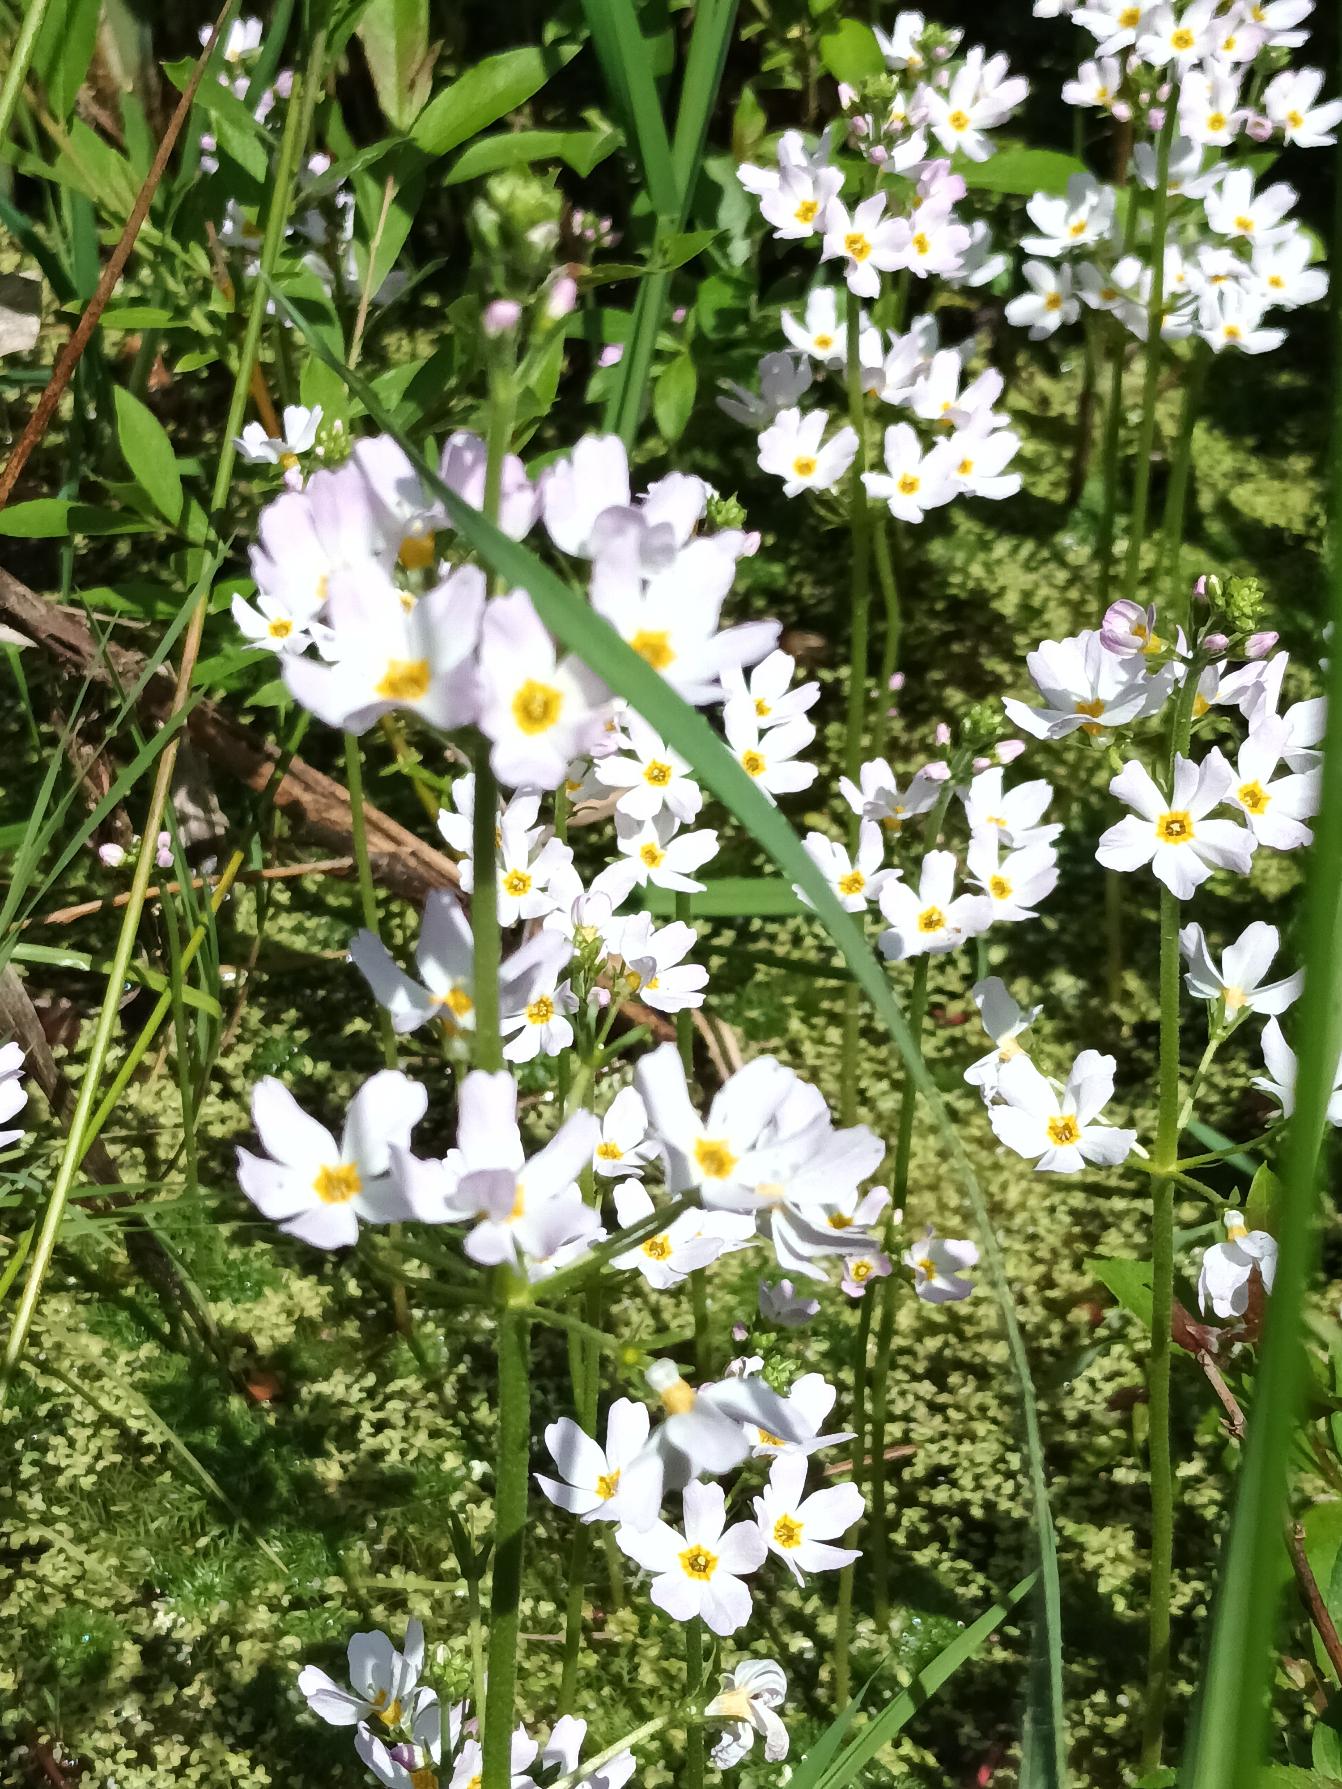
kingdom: Plantae
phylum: Tracheophyta
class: Magnoliopsida
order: Ericales
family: Primulaceae
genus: Hottonia
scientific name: Hottonia palustris
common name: Vandrøllike
